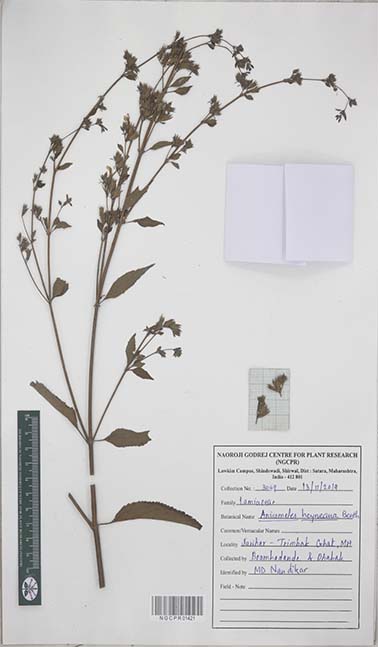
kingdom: Plantae
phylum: Tracheophyta
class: Magnoliopsida
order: Lamiales
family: Lamiaceae
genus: Anisomeles
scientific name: Anisomeles heyneana
